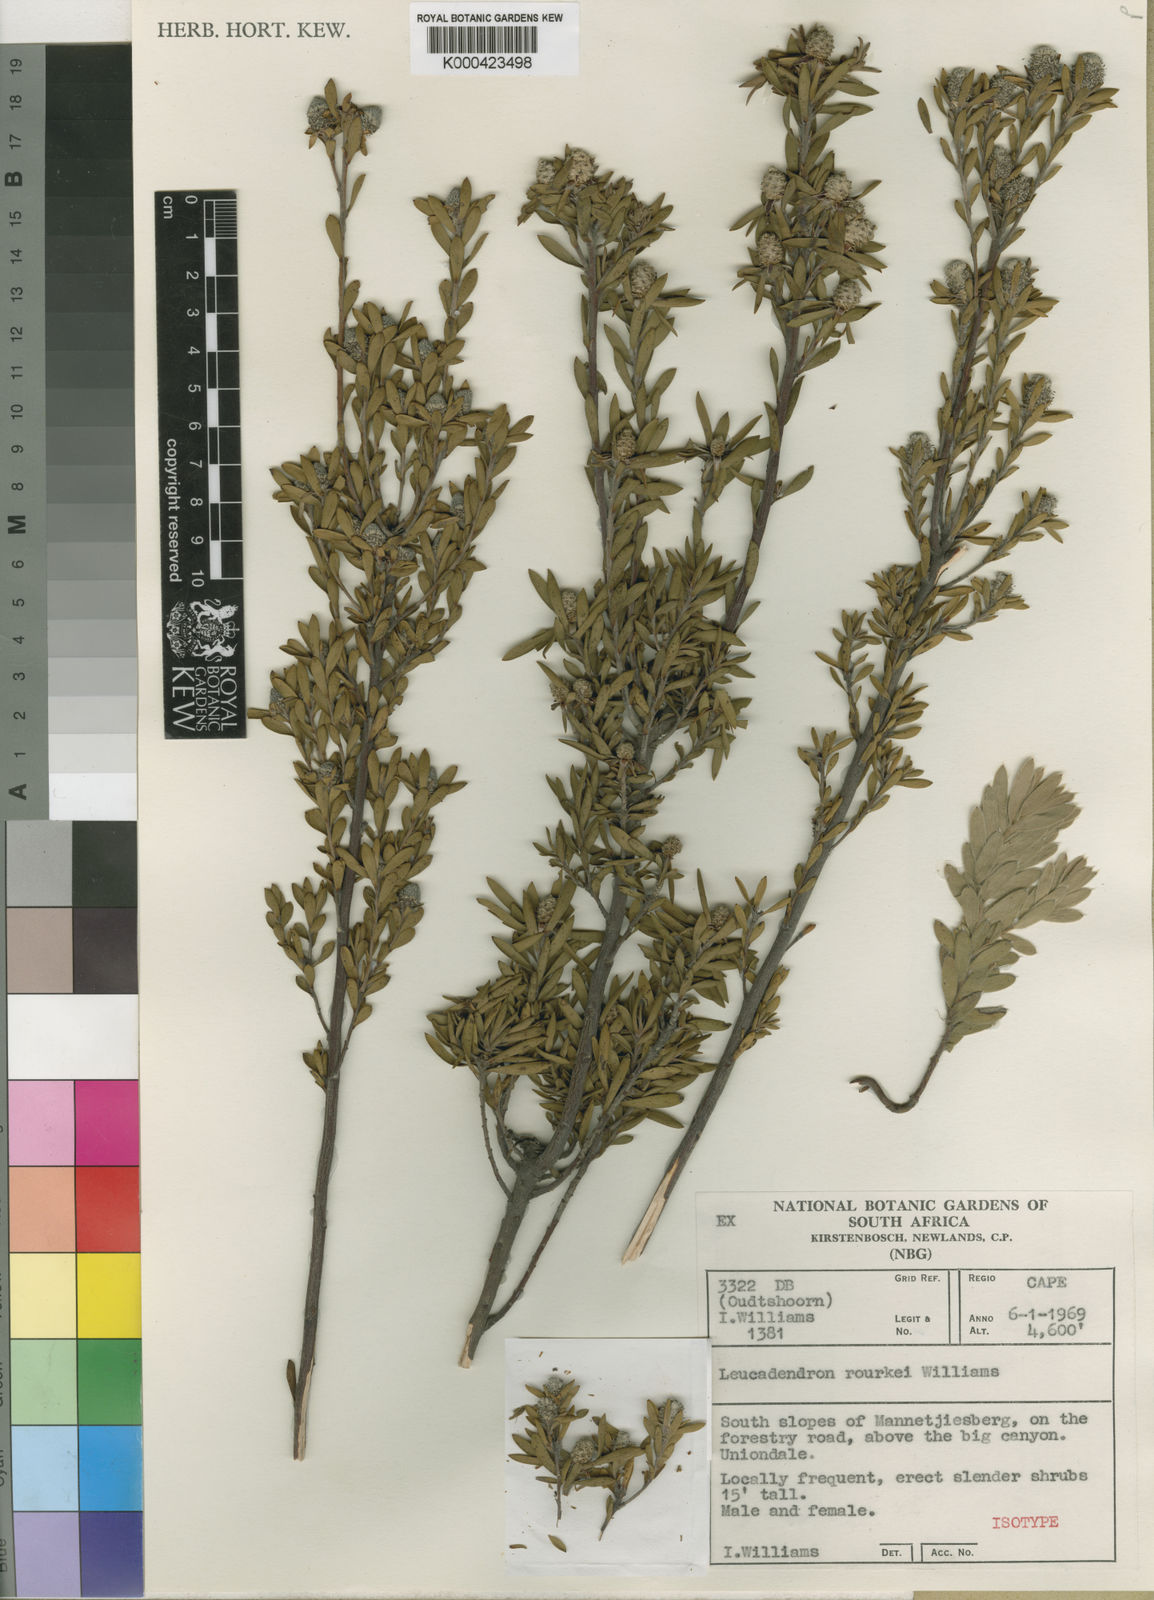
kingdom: Plantae
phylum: Tracheophyta
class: Magnoliopsida
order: Proteales
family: Proteaceae
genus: Leucadendron
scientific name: Leucadendron rourkei
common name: Uniondale conebush
